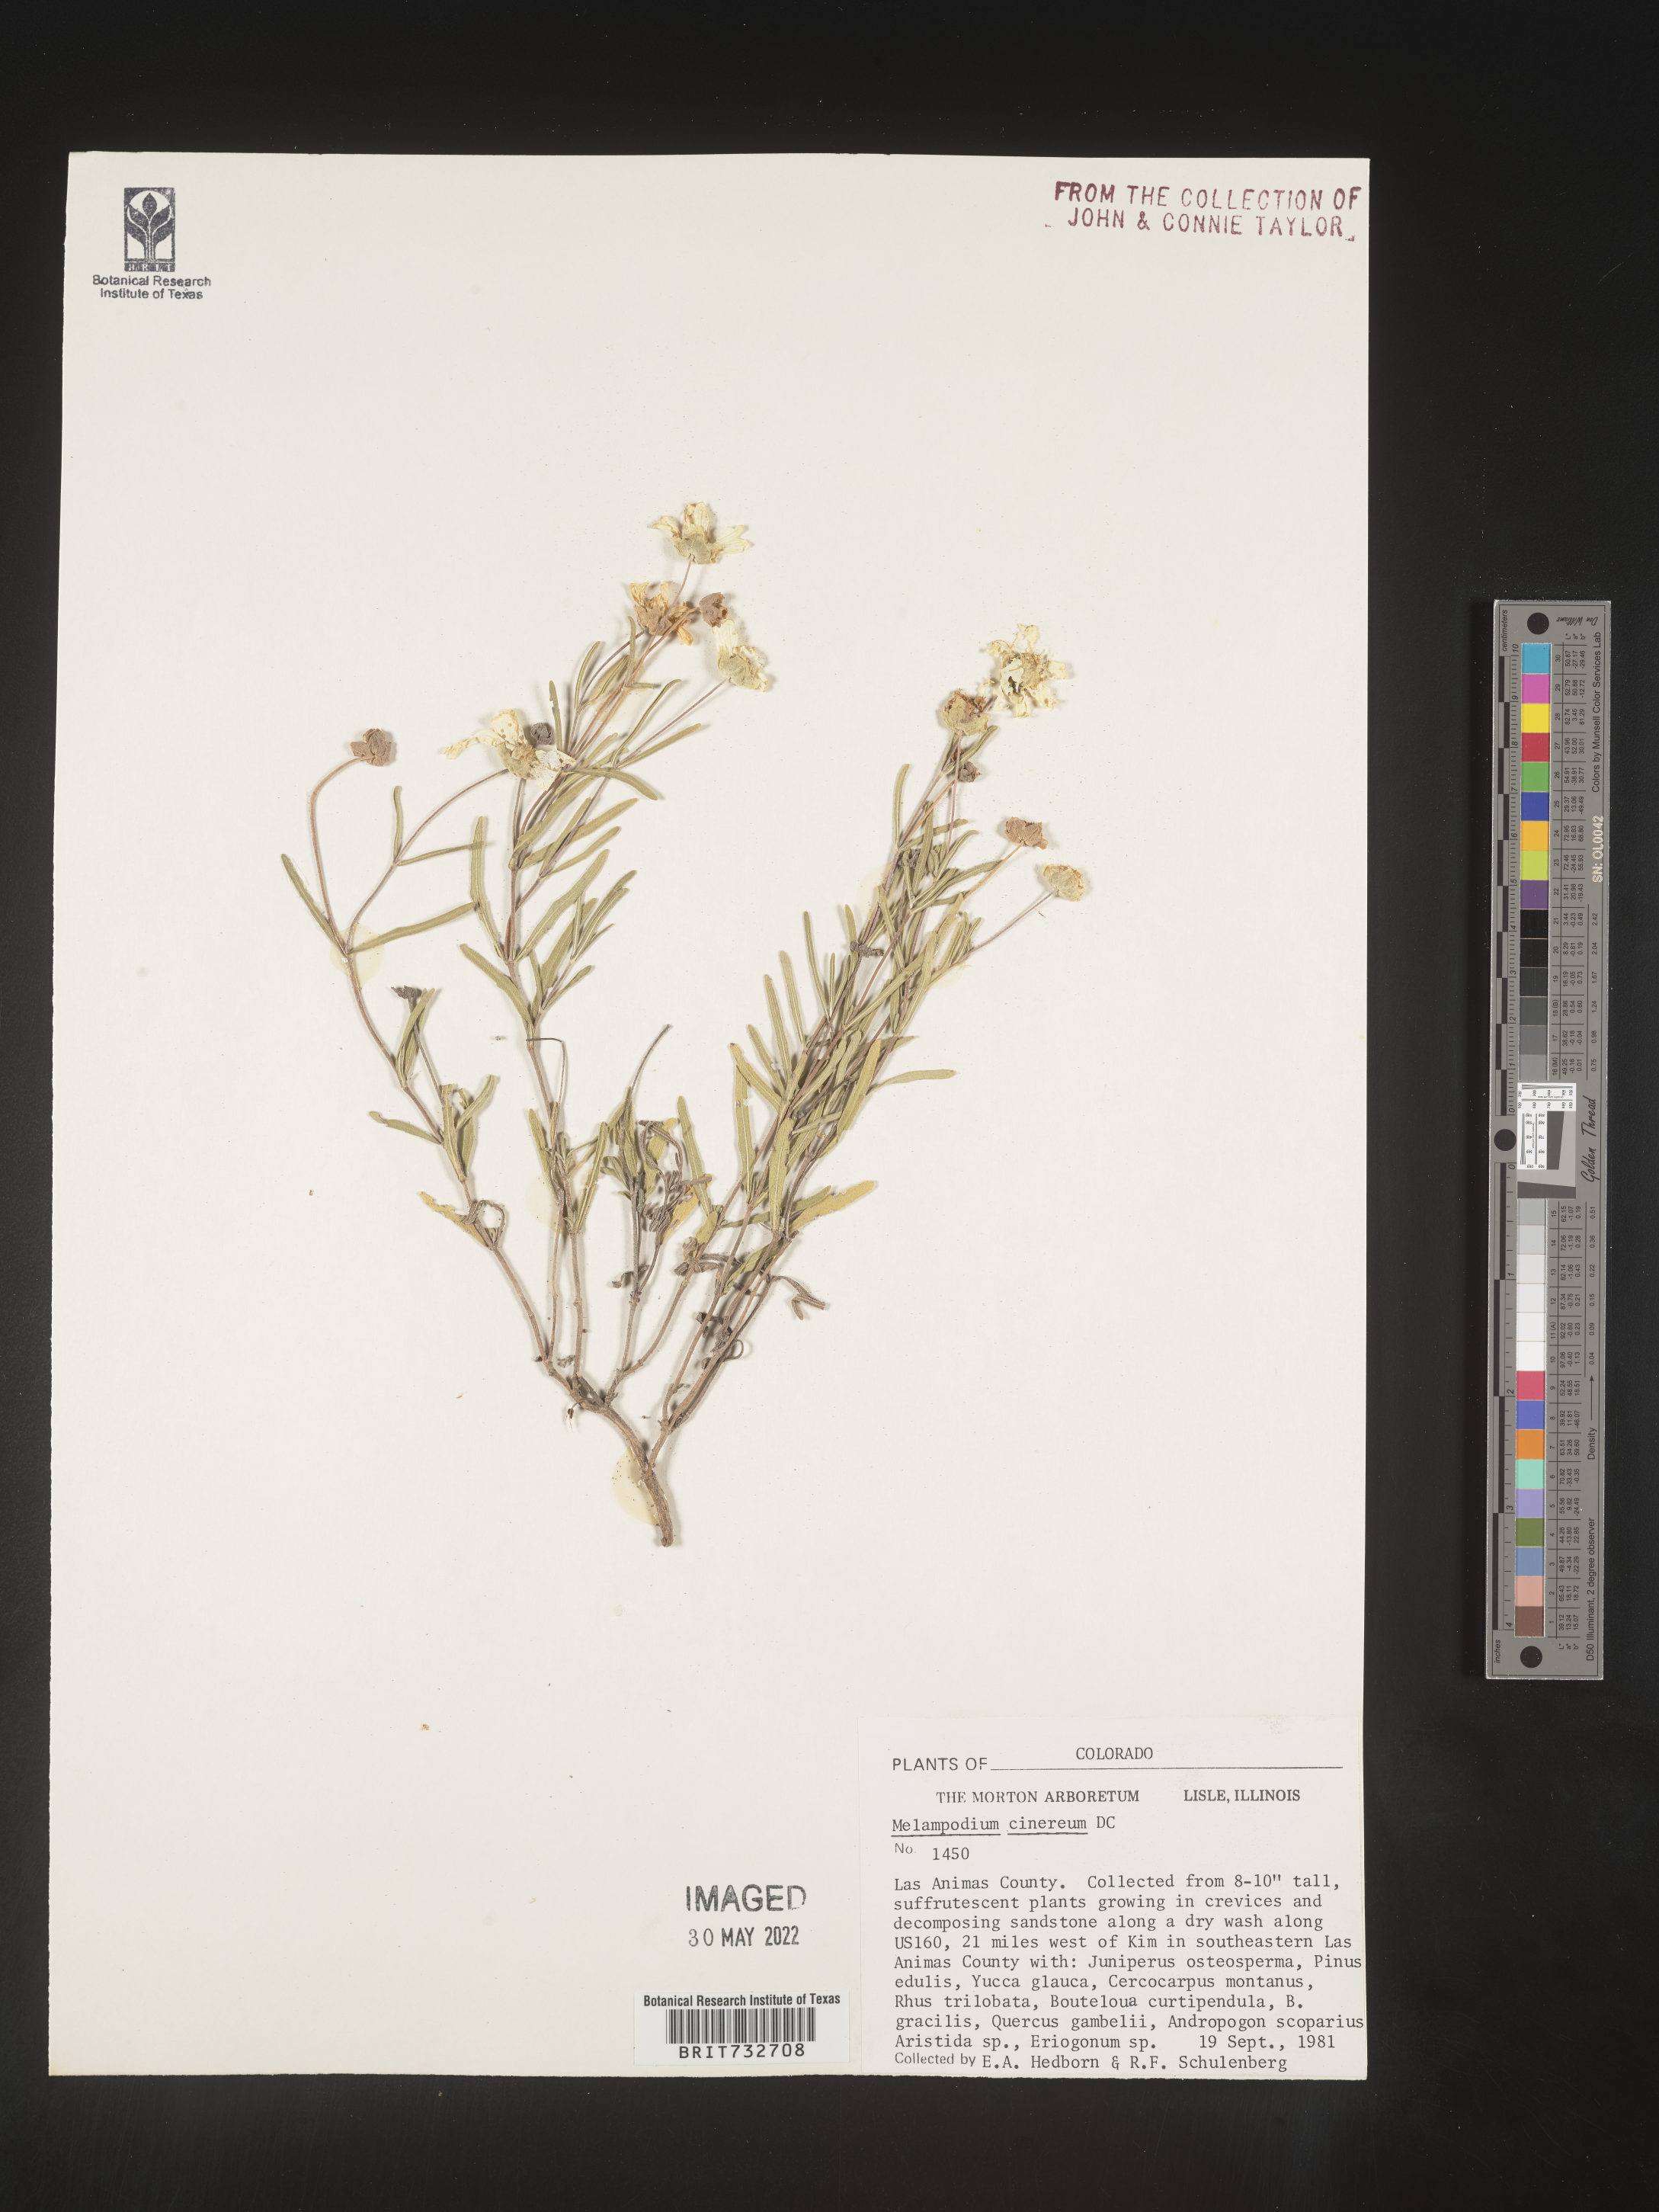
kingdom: Plantae
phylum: Tracheophyta
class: Magnoliopsida
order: Asterales
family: Asteraceae
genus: Melampodium
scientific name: Melampodium leucanthum
